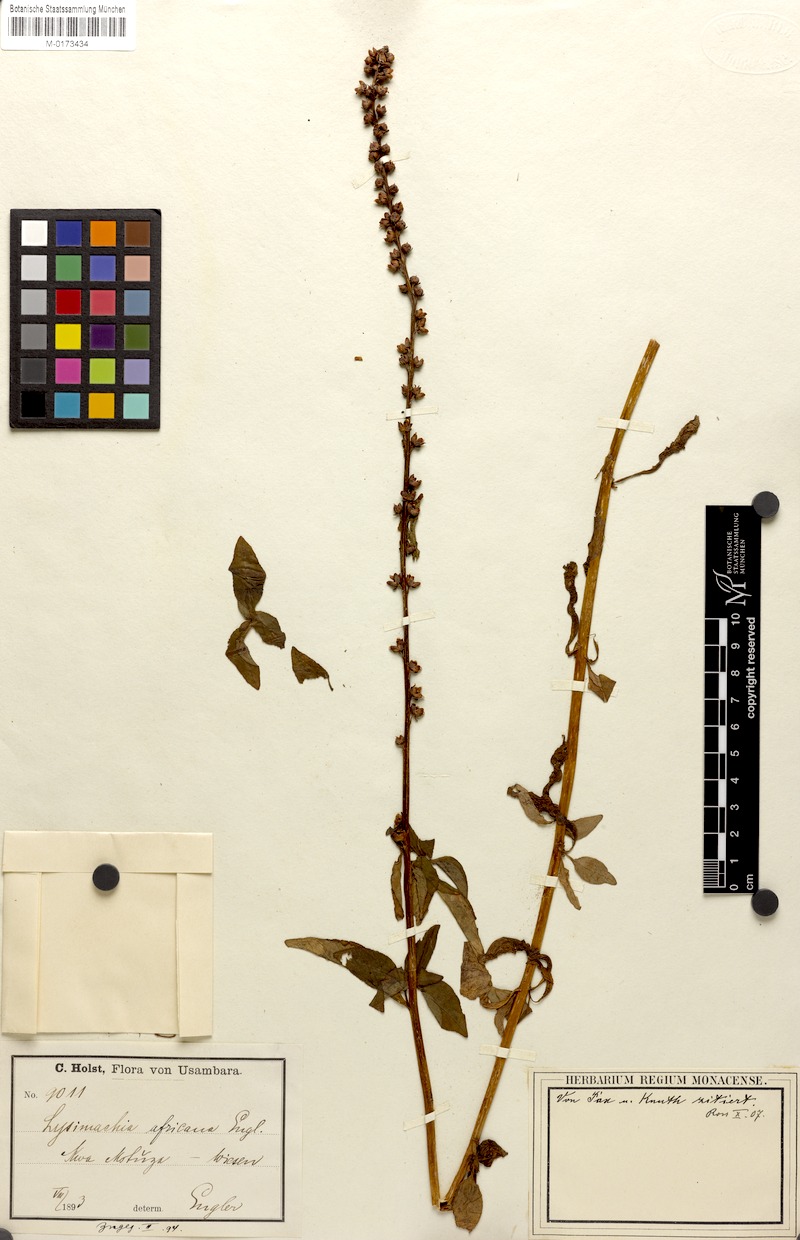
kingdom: Plantae
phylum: Tracheophyta
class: Magnoliopsida
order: Ericales
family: Primulaceae
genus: Lysimachia
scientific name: Lysimachia ruhmeriana
